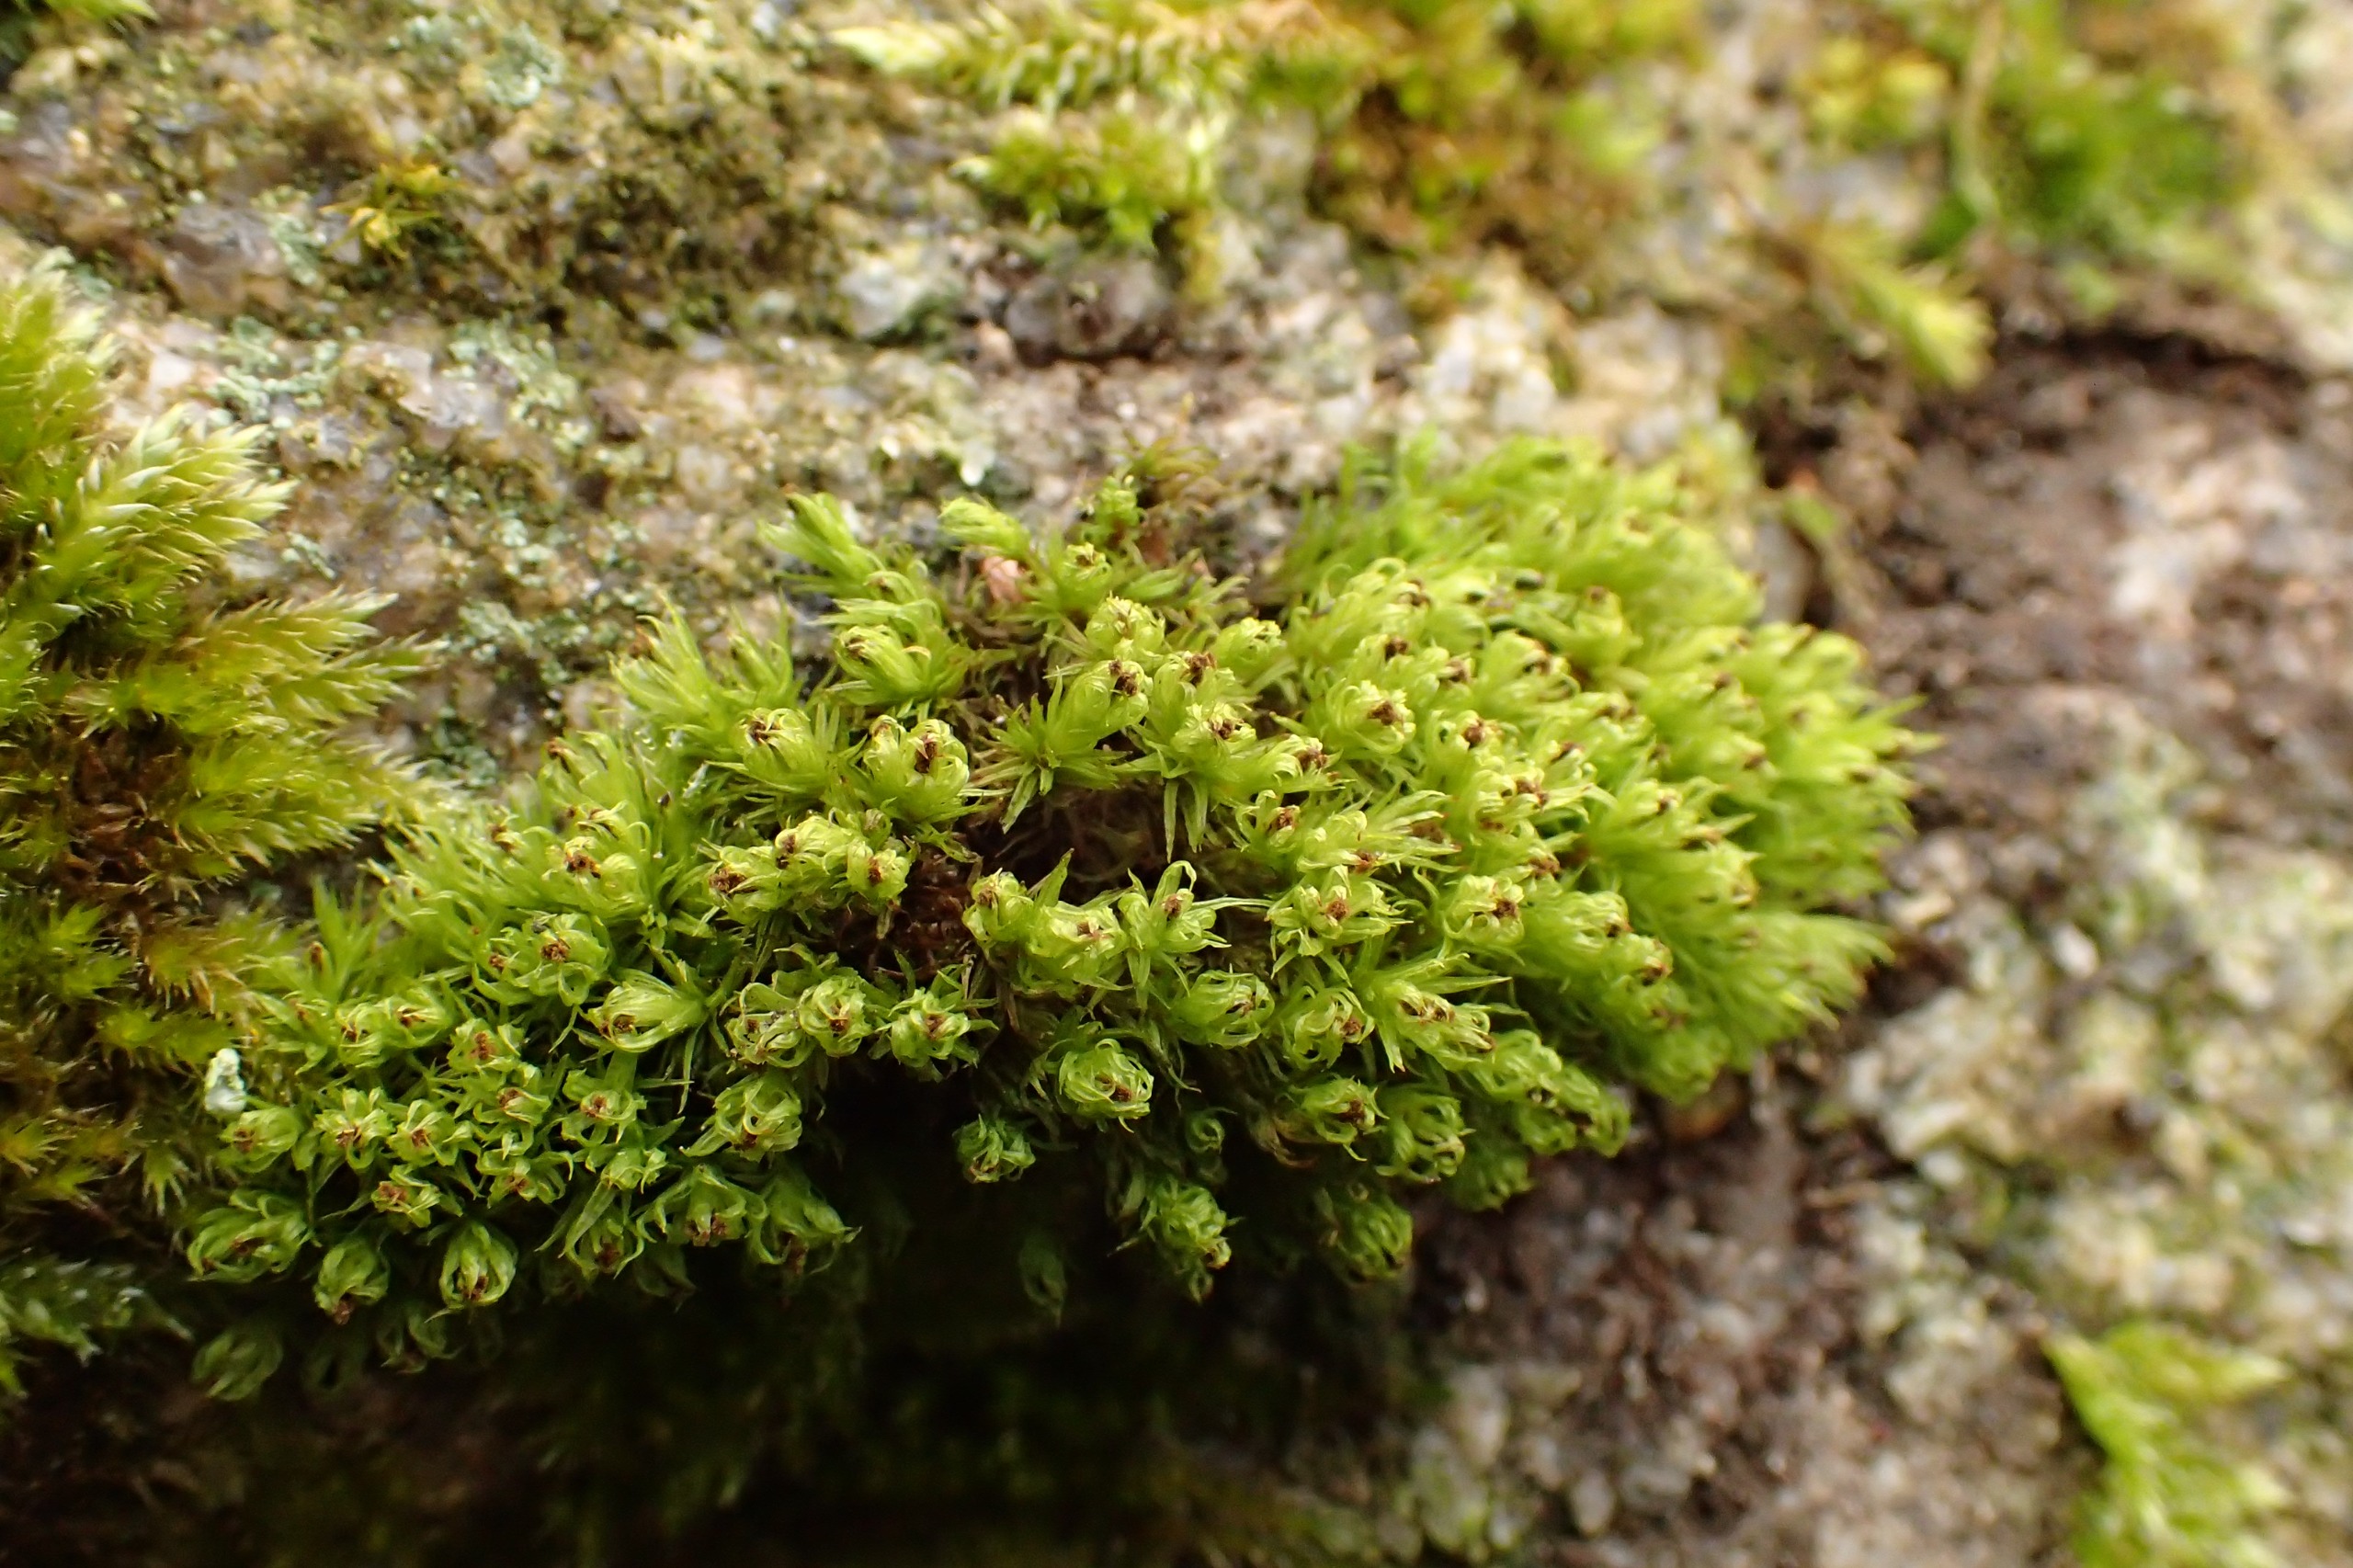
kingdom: Plantae
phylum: Bryophyta
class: Bryopsida
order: Orthotrichales
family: Orthotrichaceae
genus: Plenogemma
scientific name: Plenogemma phyllantha
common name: Stor låddenhætte
